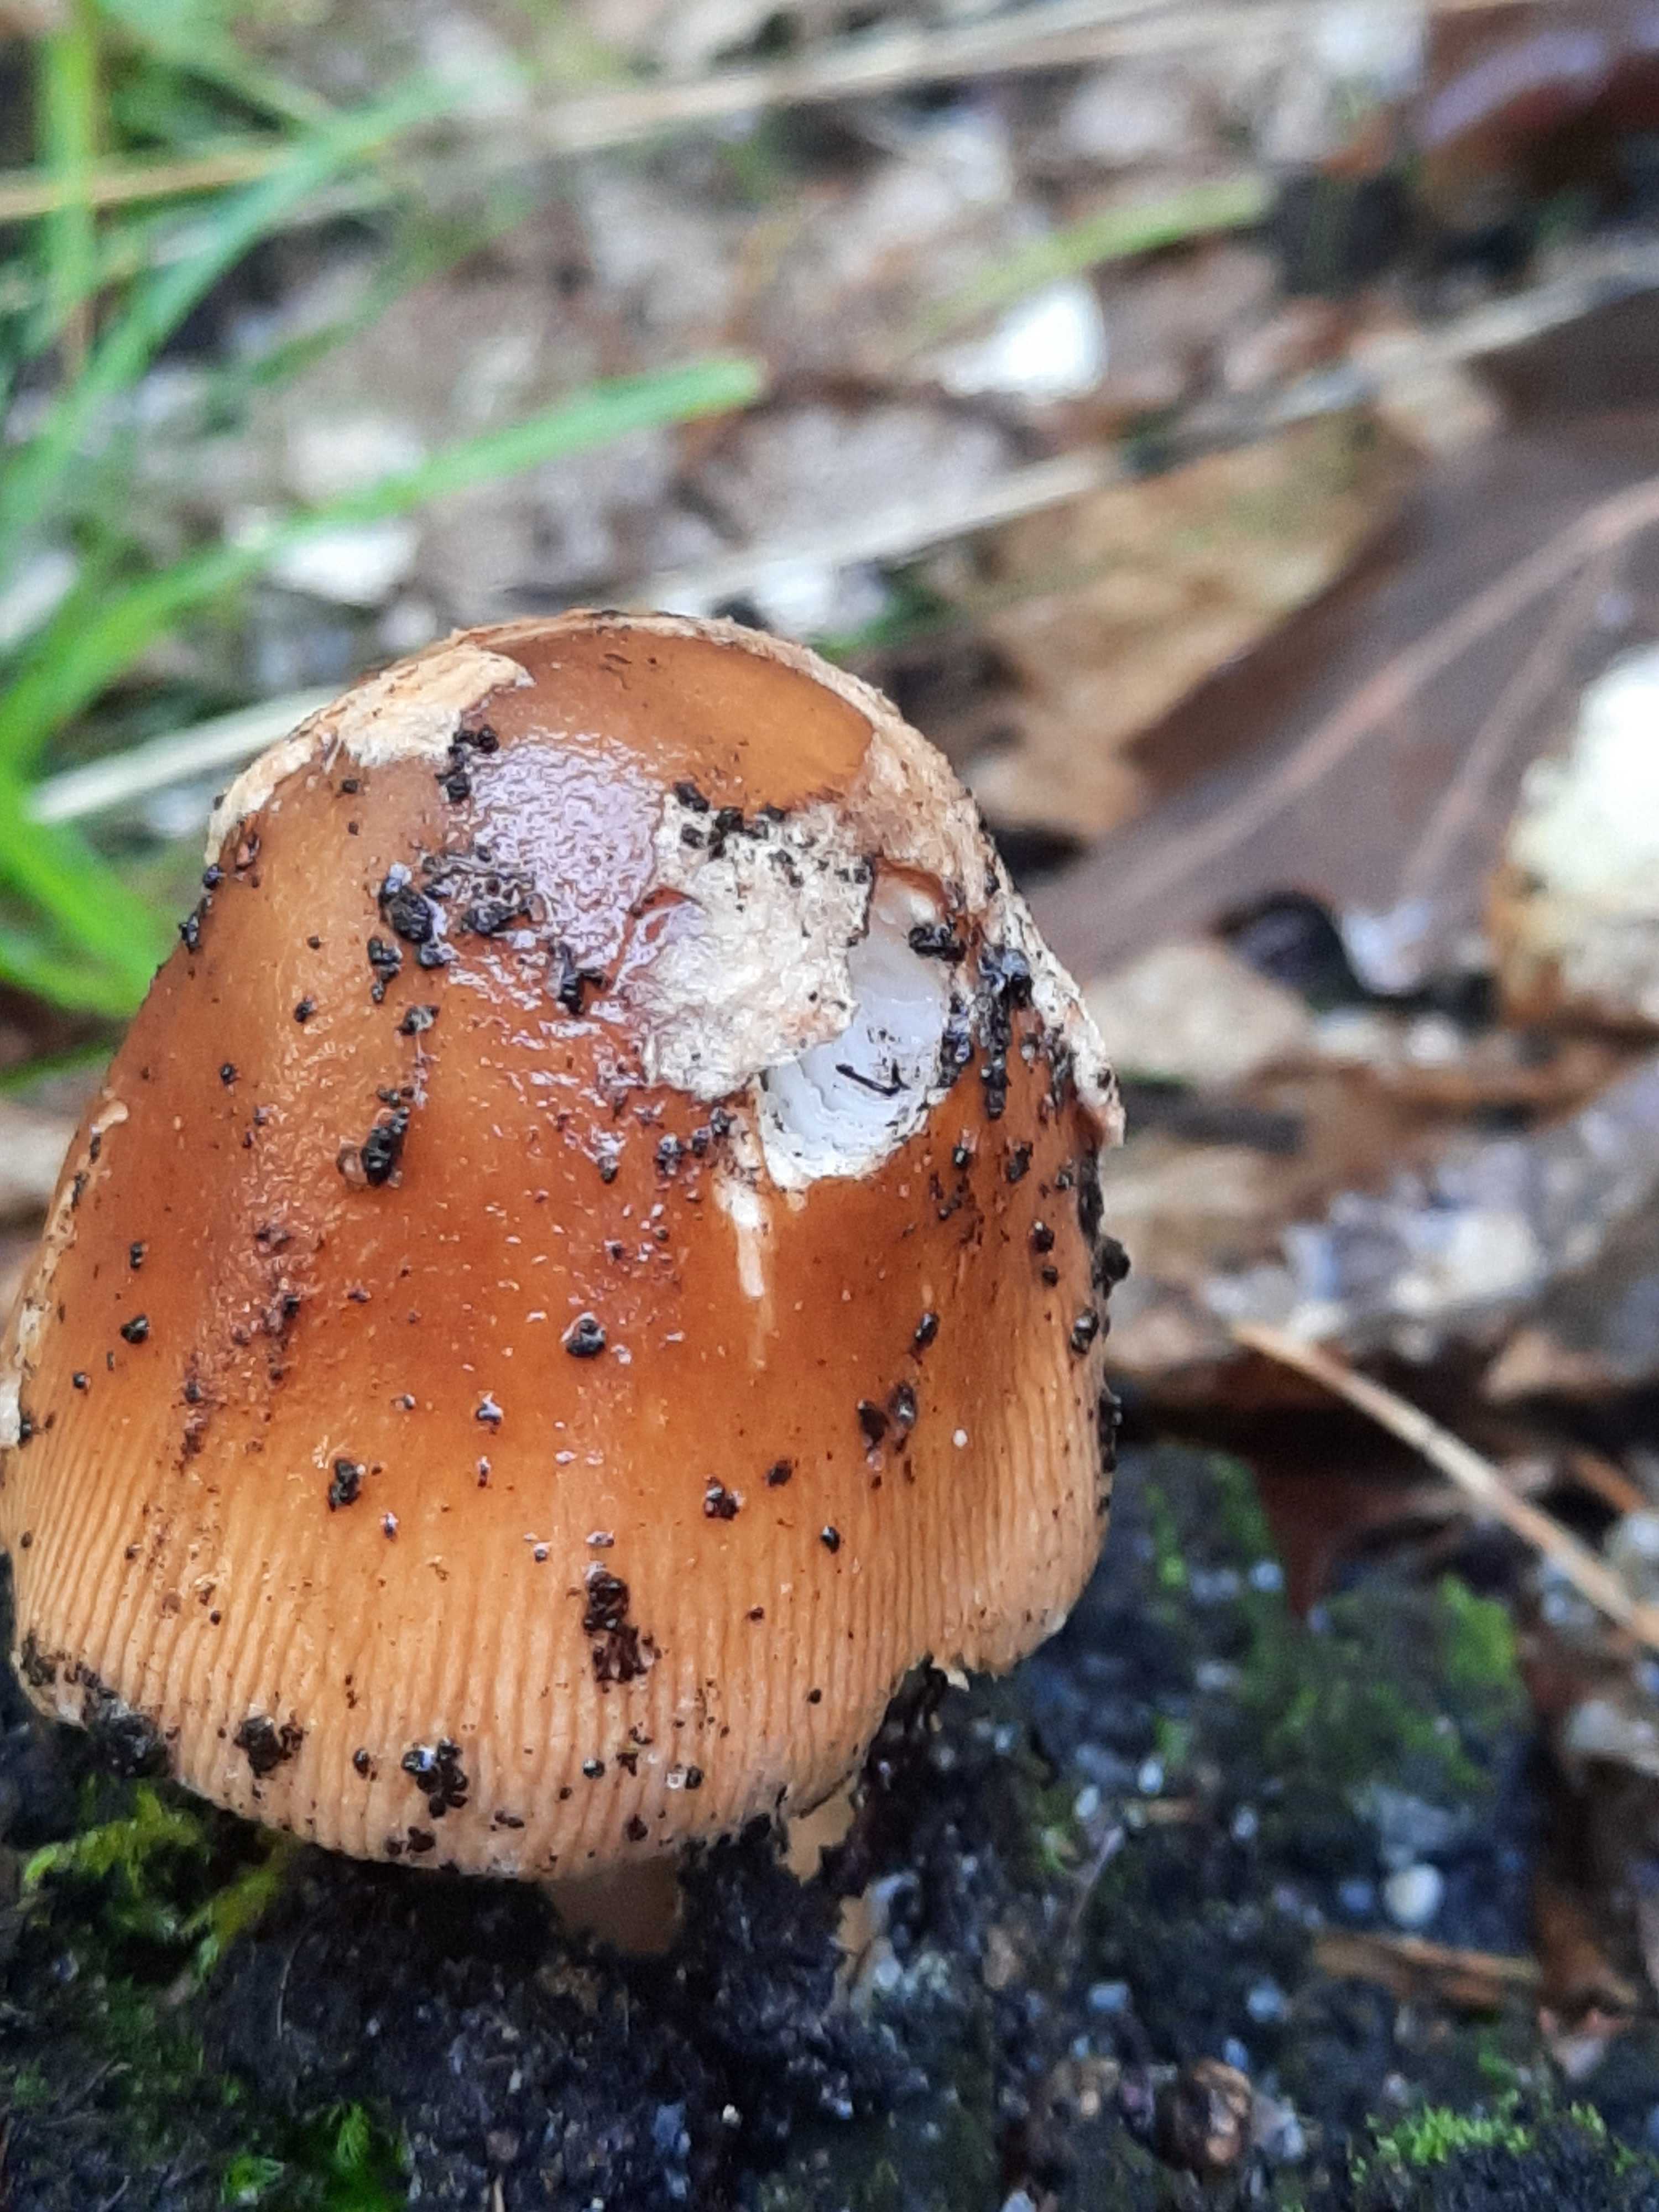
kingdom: Fungi
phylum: Basidiomycota
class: Agaricomycetes
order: Agaricales
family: Amanitaceae
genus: Amanita
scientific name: Amanita fulva
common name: brun kam-fluesvamp
